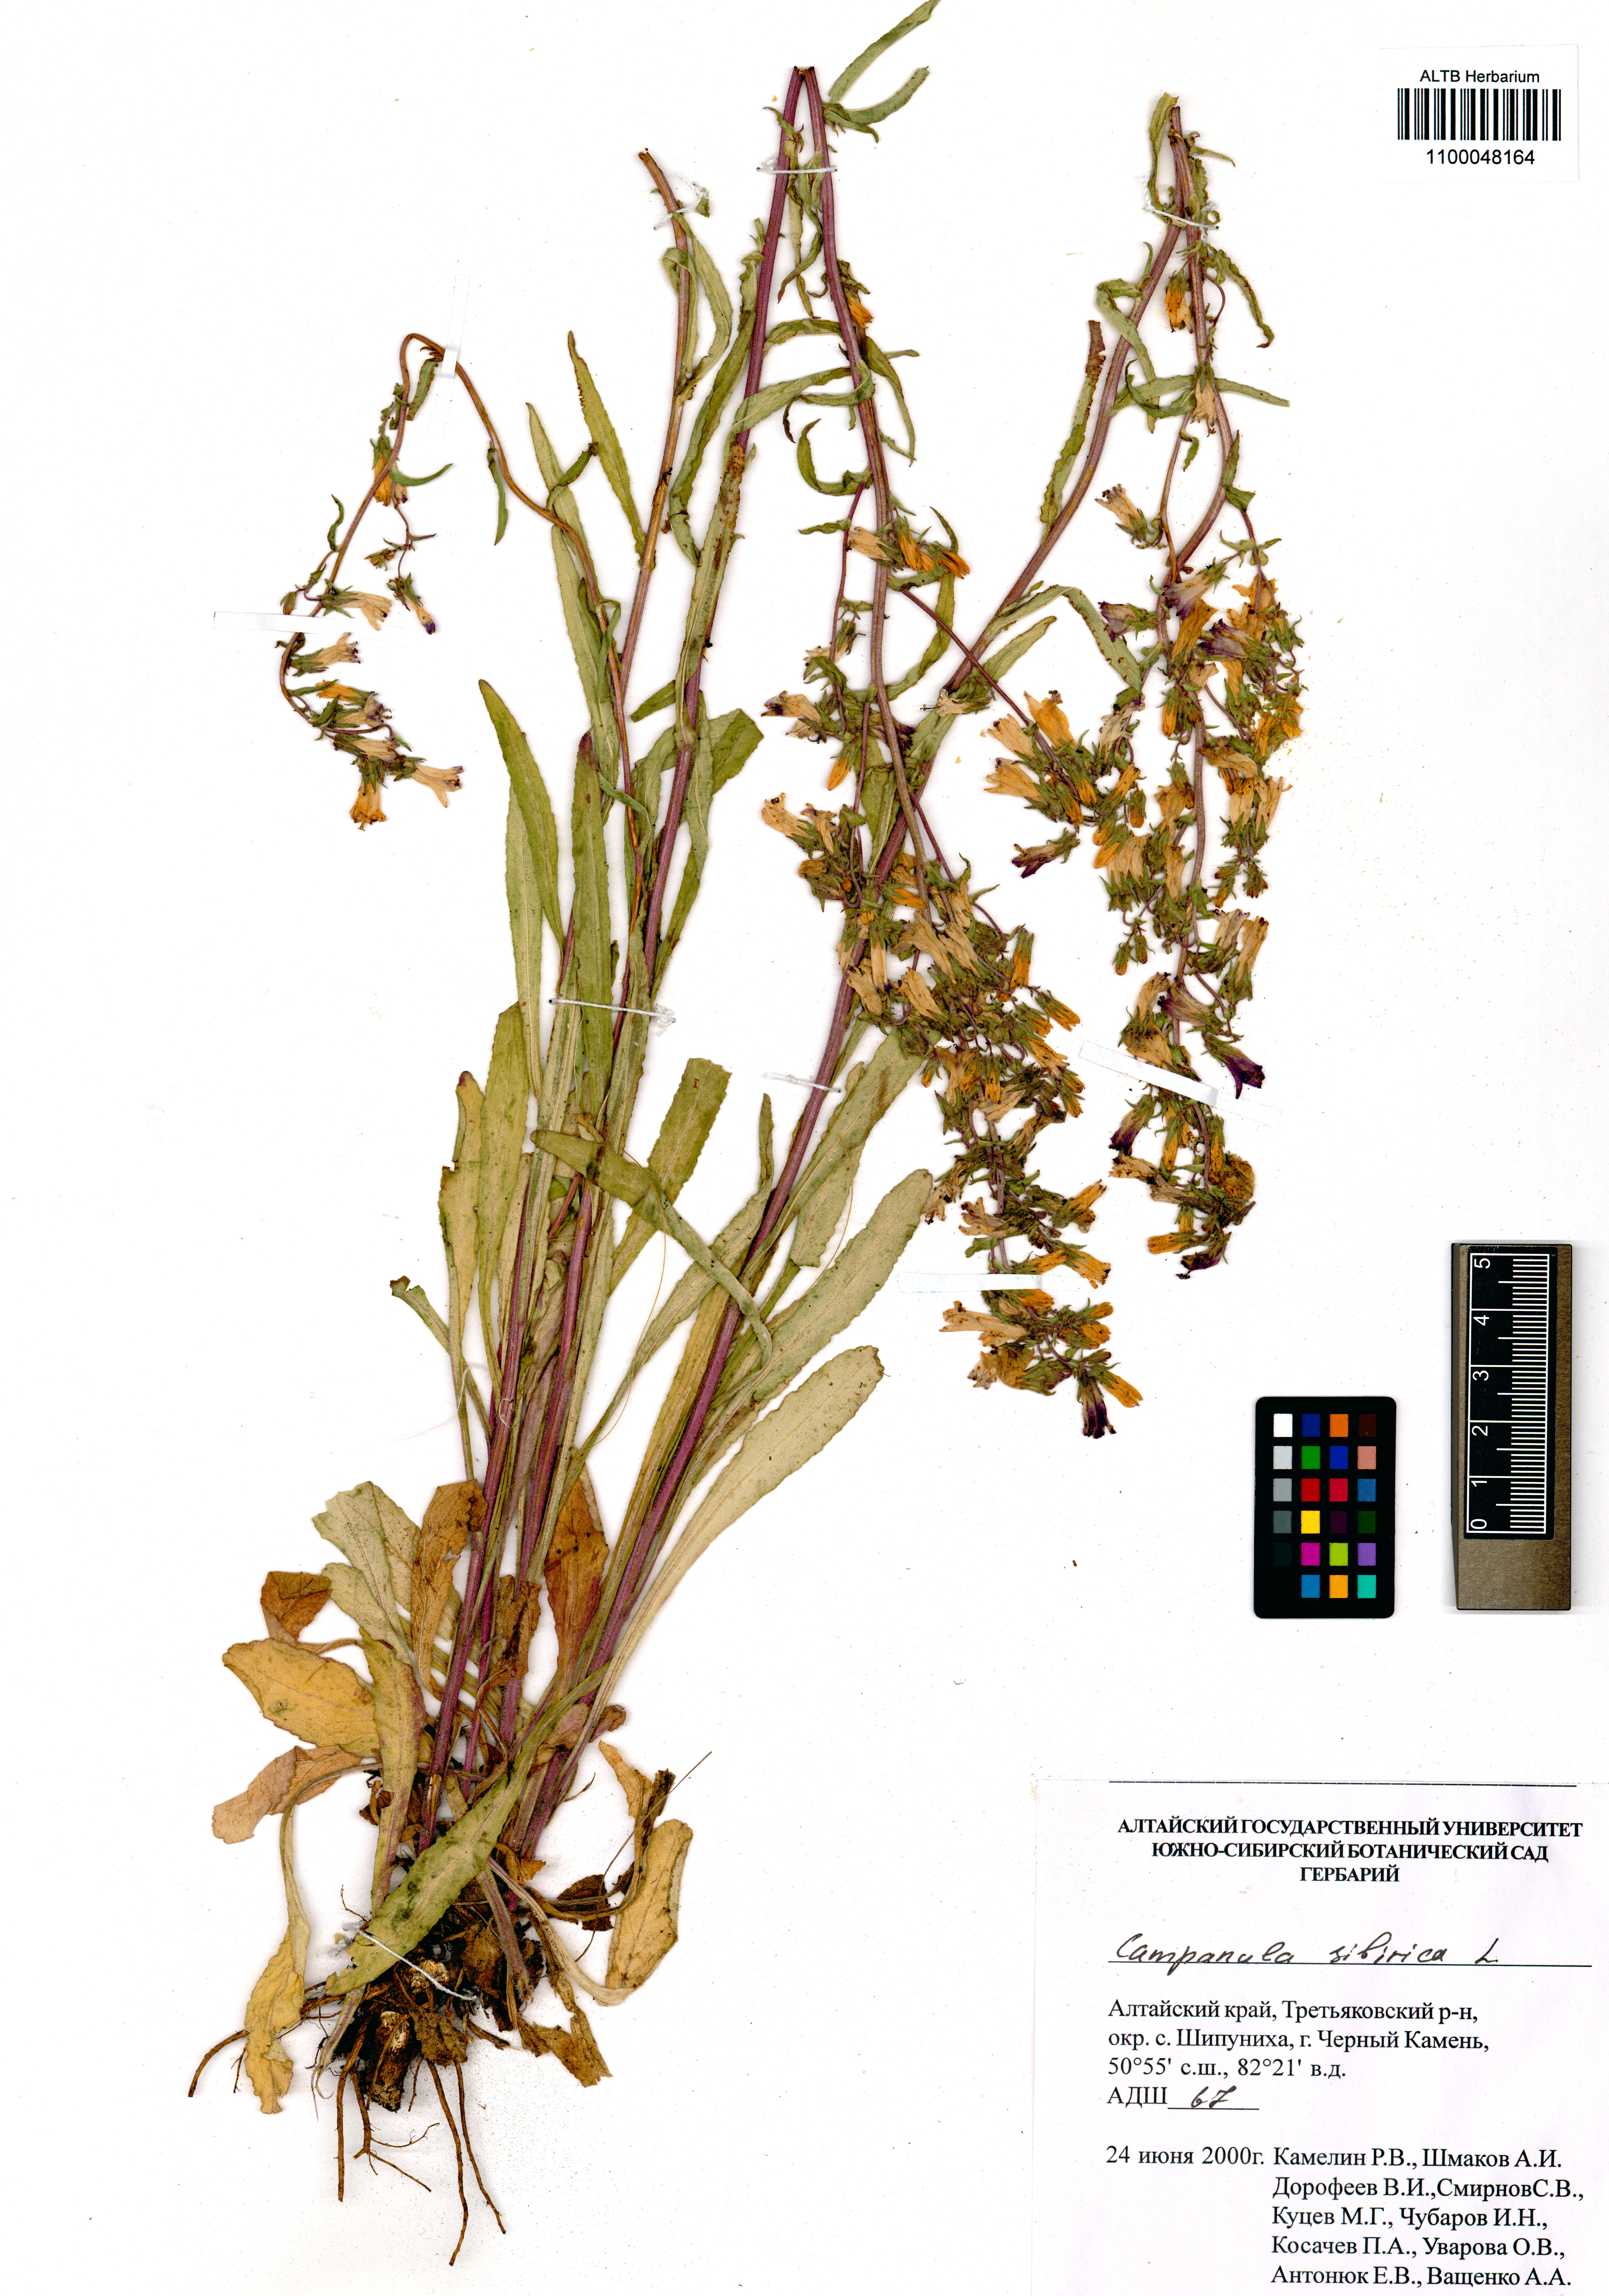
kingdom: Plantae
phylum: Tracheophyta
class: Magnoliopsida
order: Asterales
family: Campanulaceae
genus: Campanula
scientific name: Campanula sibirica
